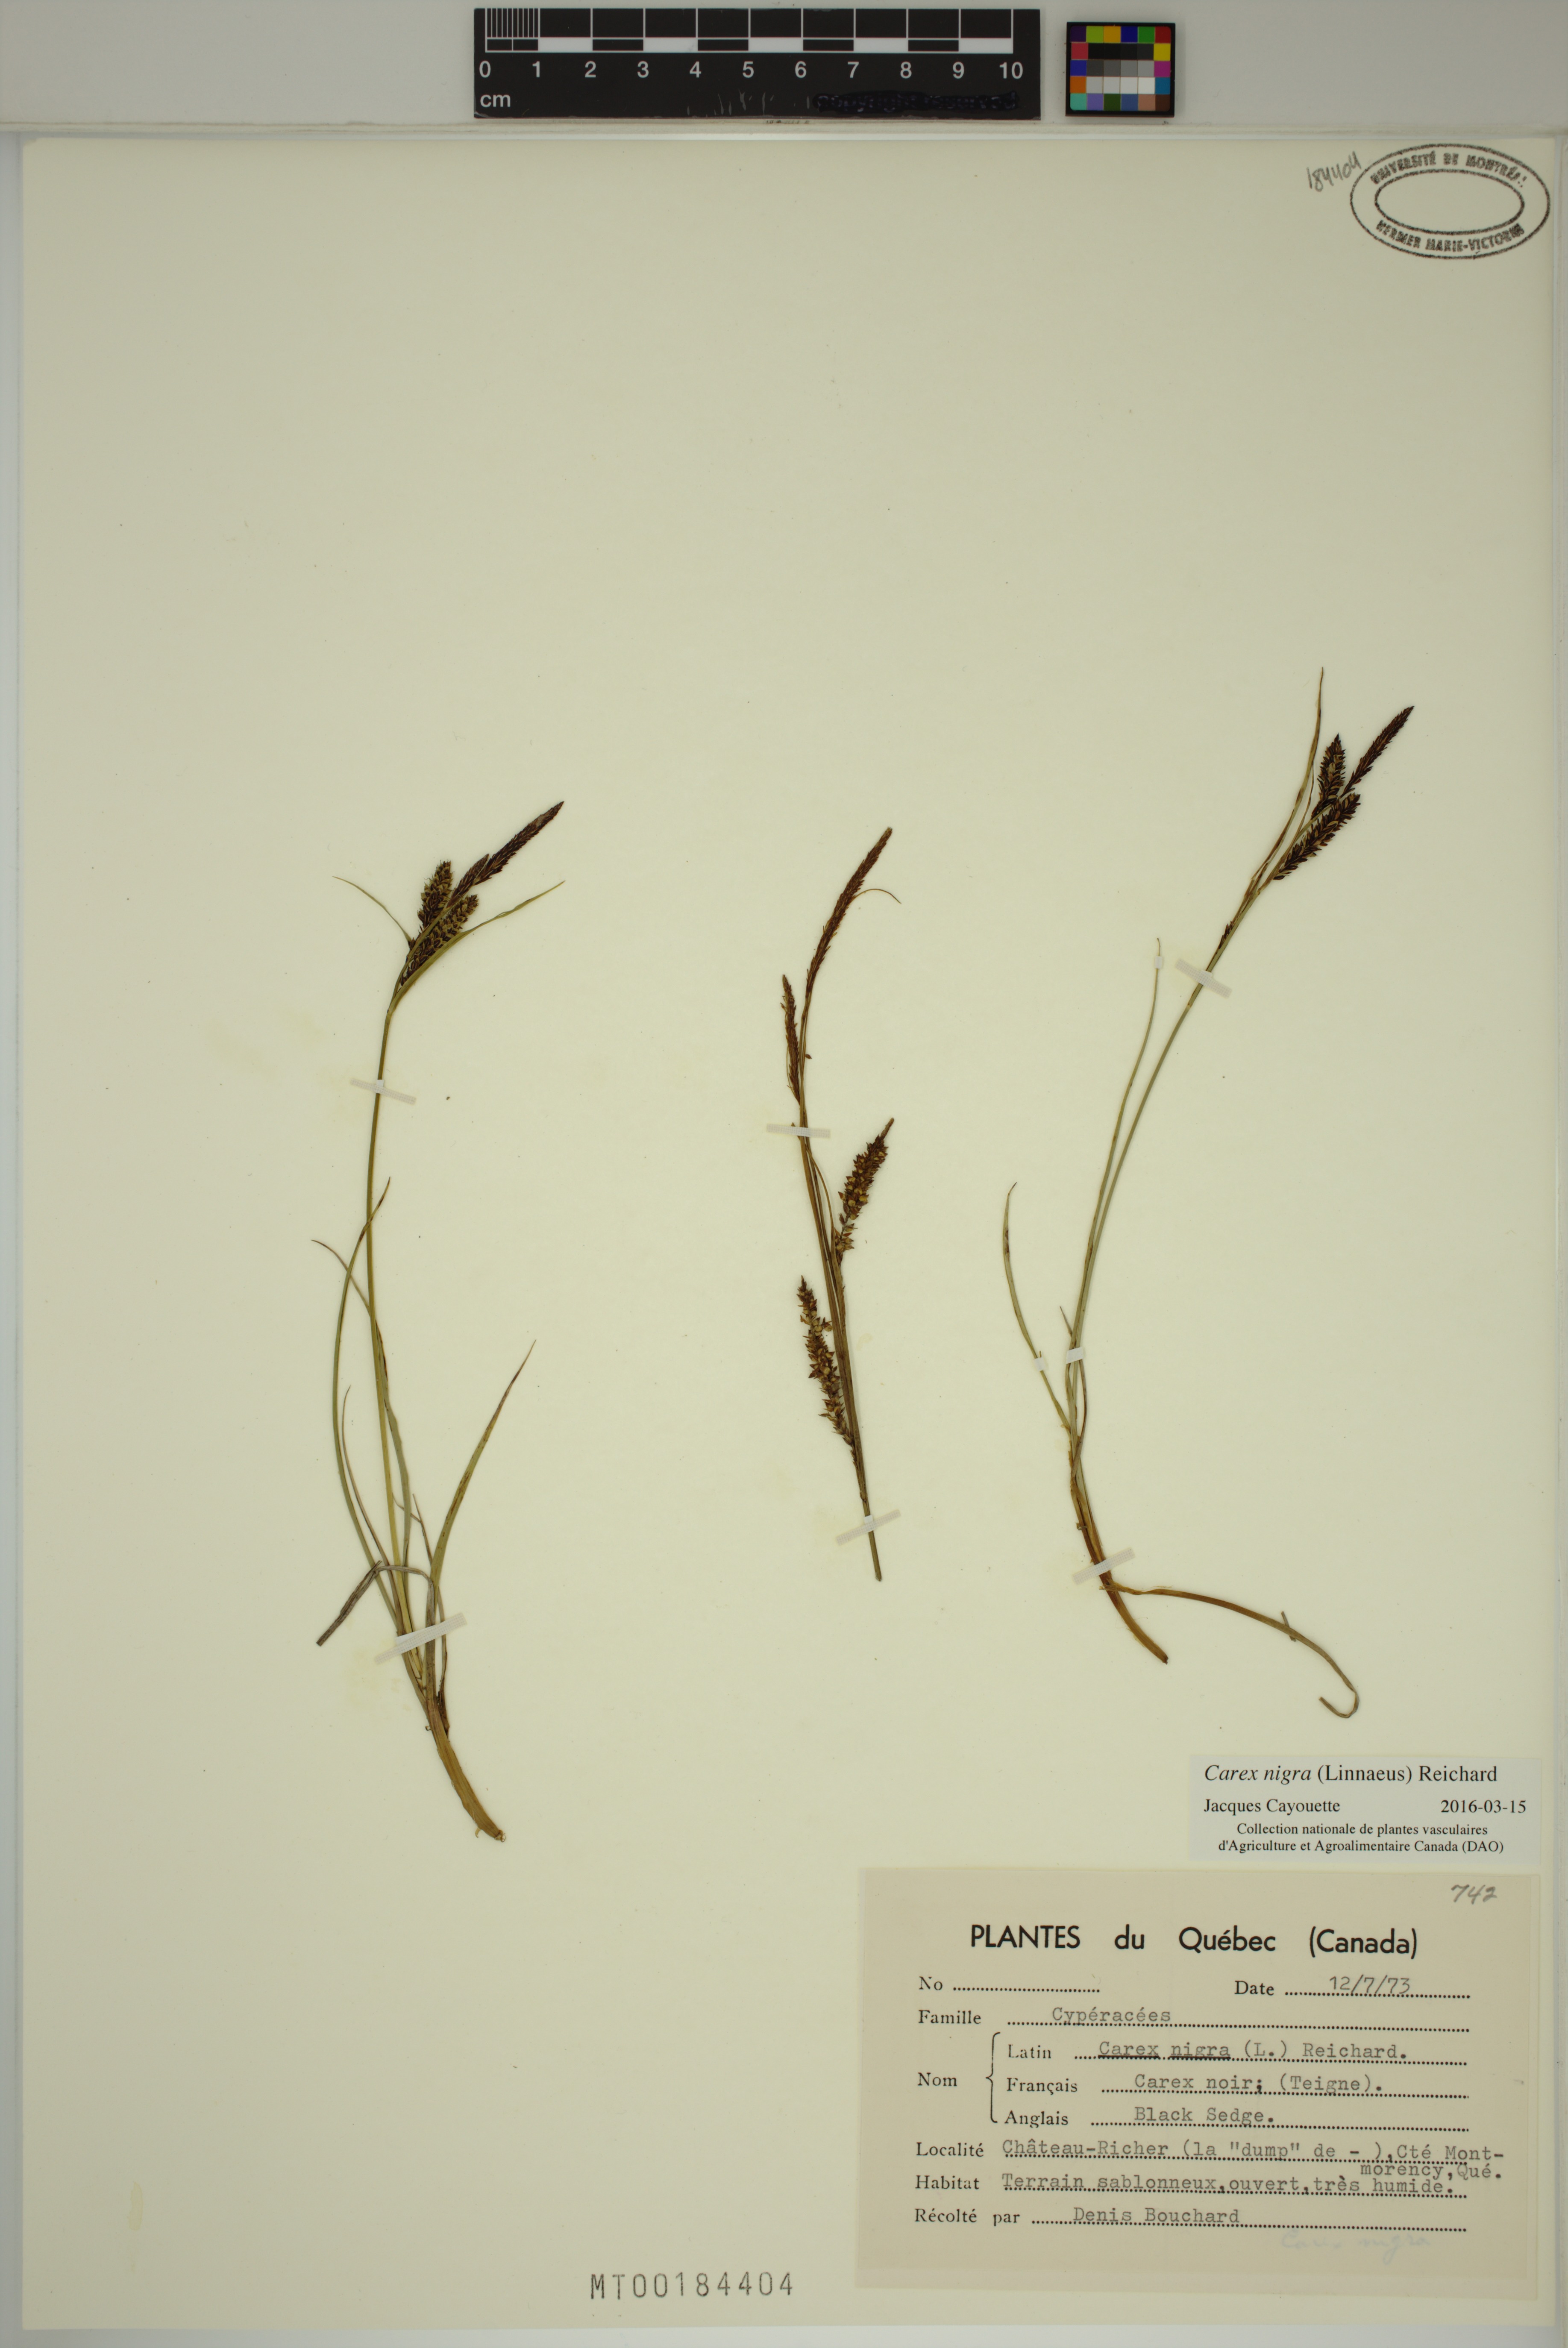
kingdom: Plantae
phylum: Tracheophyta
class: Liliopsida
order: Poales
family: Cyperaceae
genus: Carex
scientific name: Carex nigra
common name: Common sedge
